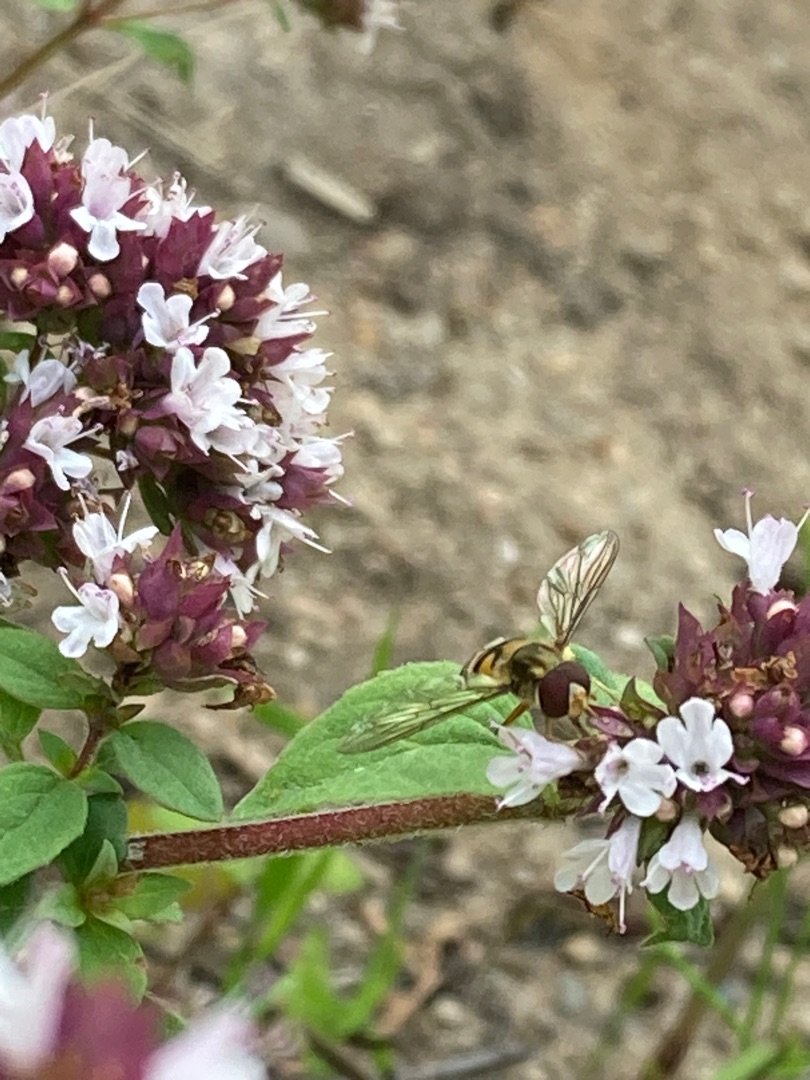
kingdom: Animalia
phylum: Arthropoda
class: Insecta
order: Diptera
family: Syrphidae
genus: Episyrphus
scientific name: Episyrphus balteatus
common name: Dobbeltbåndet svirreflue
